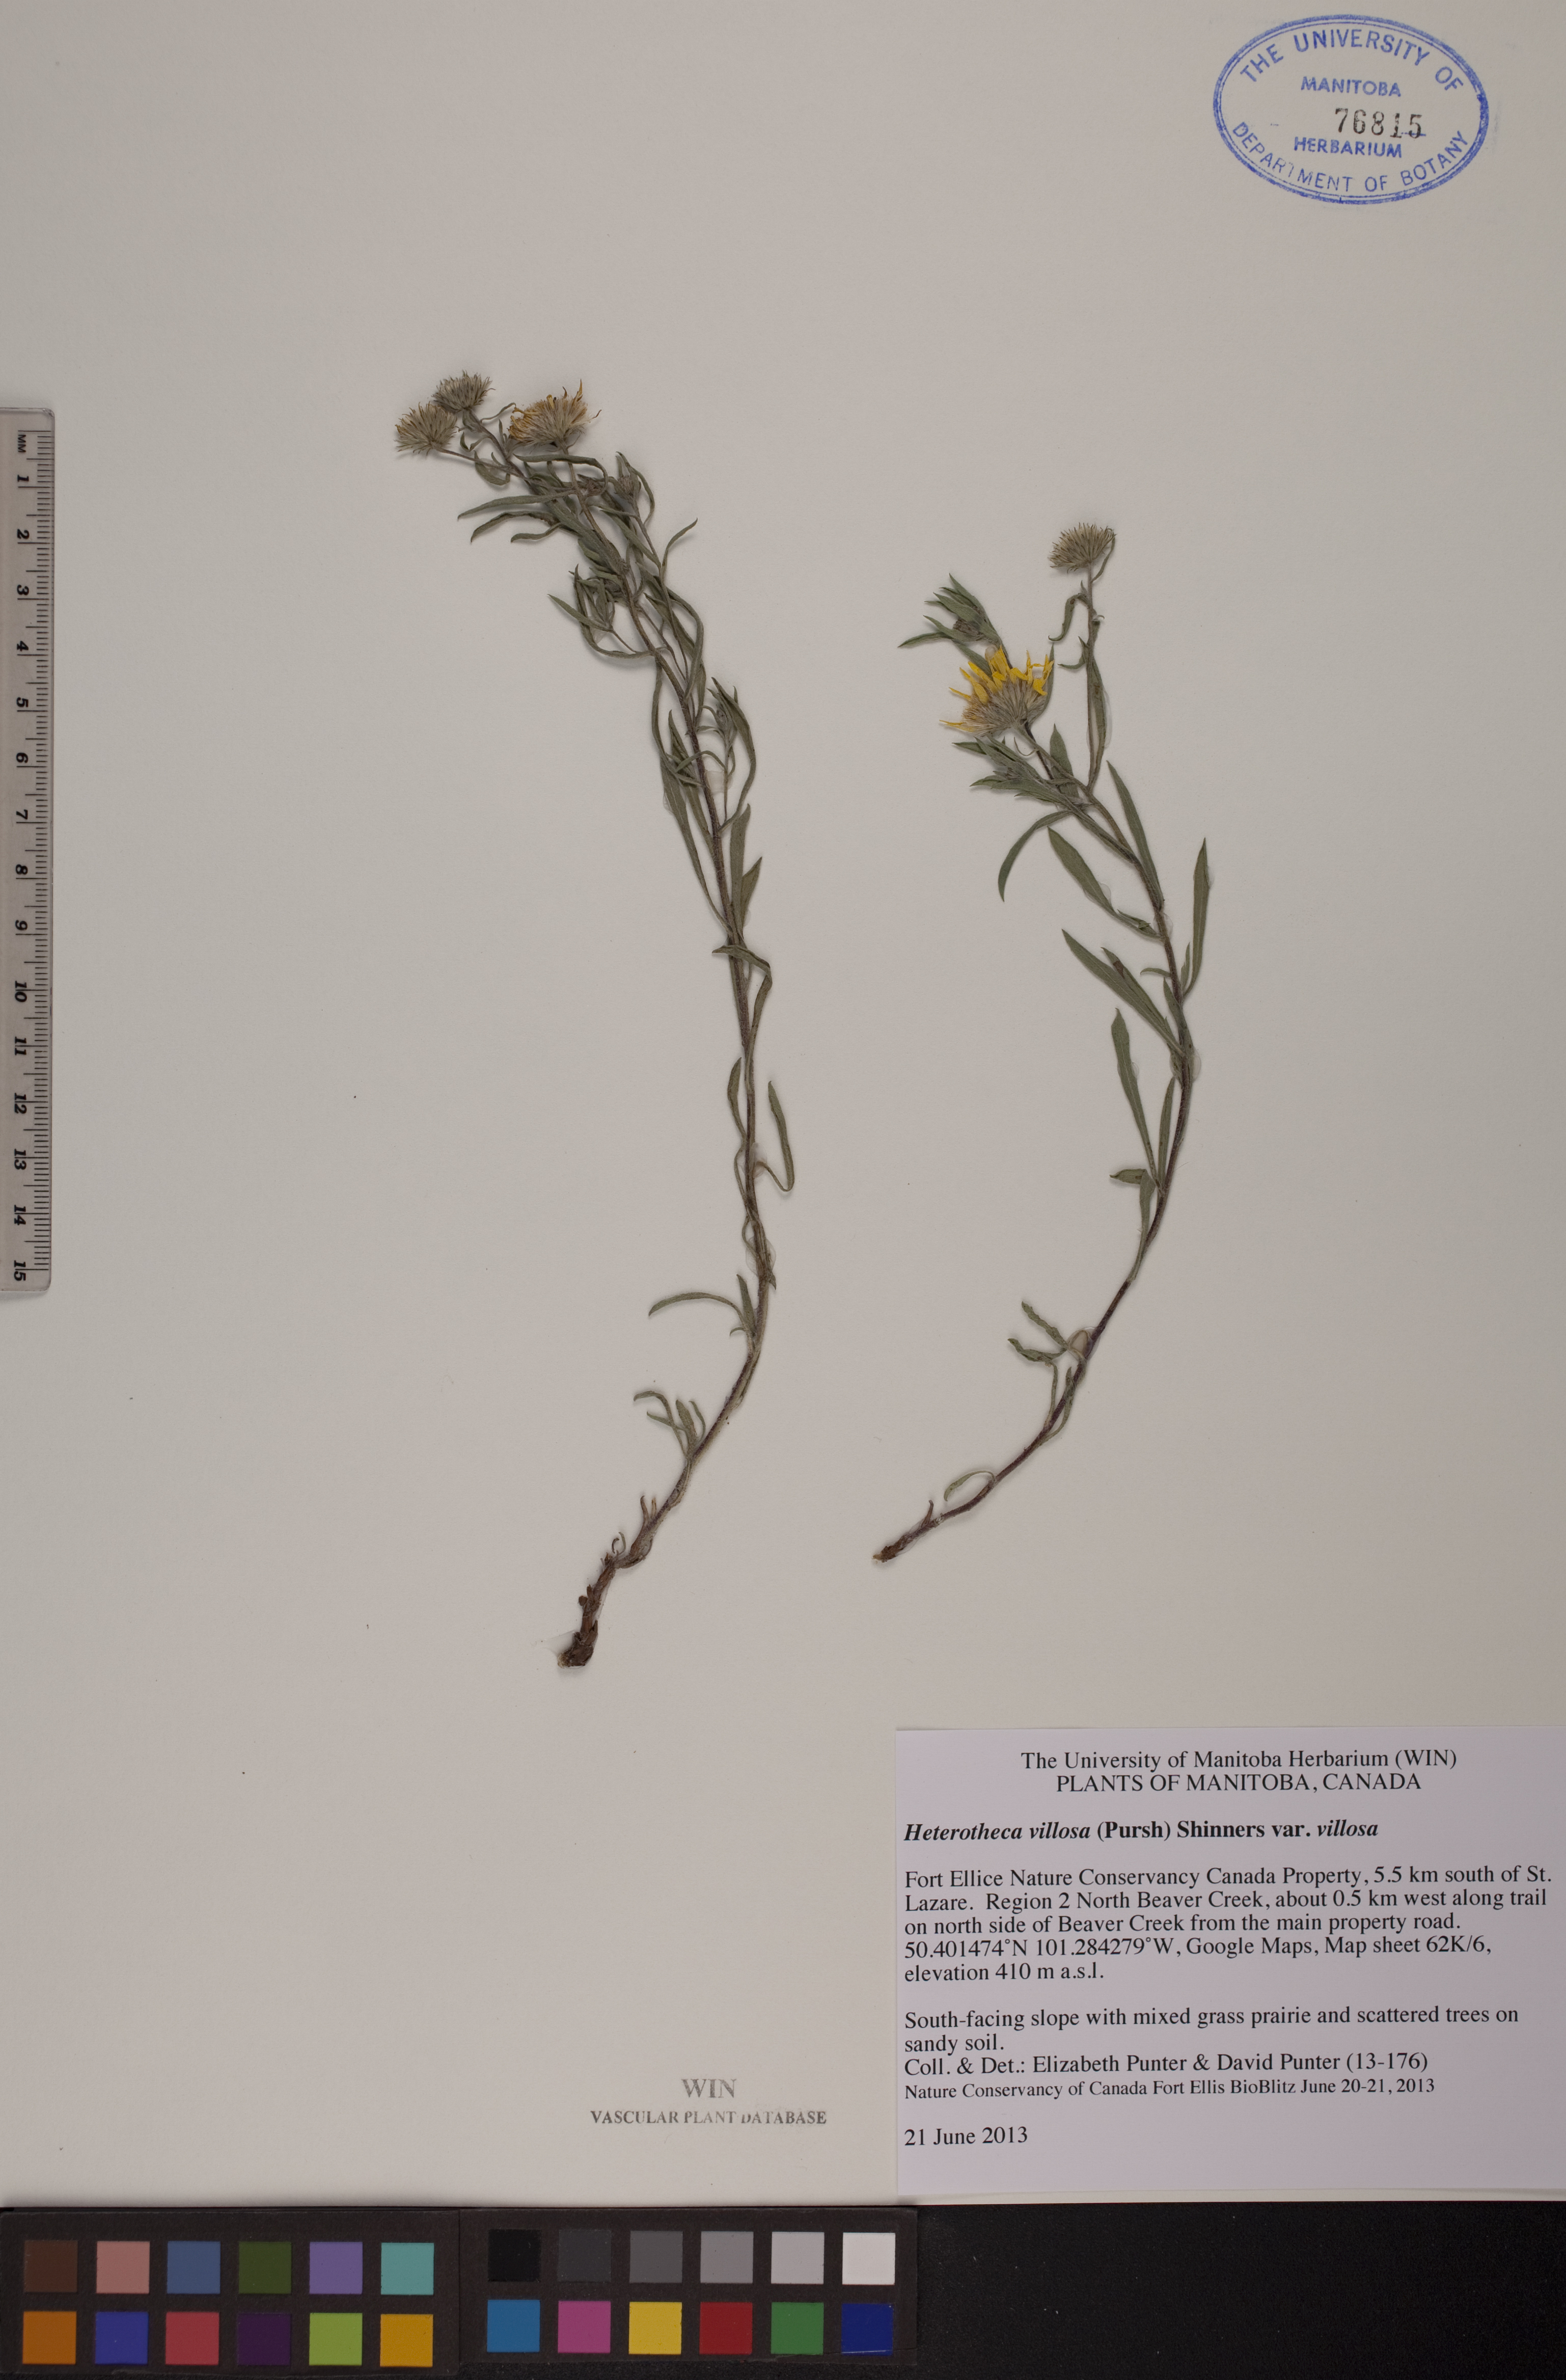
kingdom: Plantae
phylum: Tracheophyta
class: Magnoliopsida
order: Asterales
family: Asteraceae
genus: Heterotheca
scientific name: Heterotheca villosa
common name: Hairy false goldenaster
